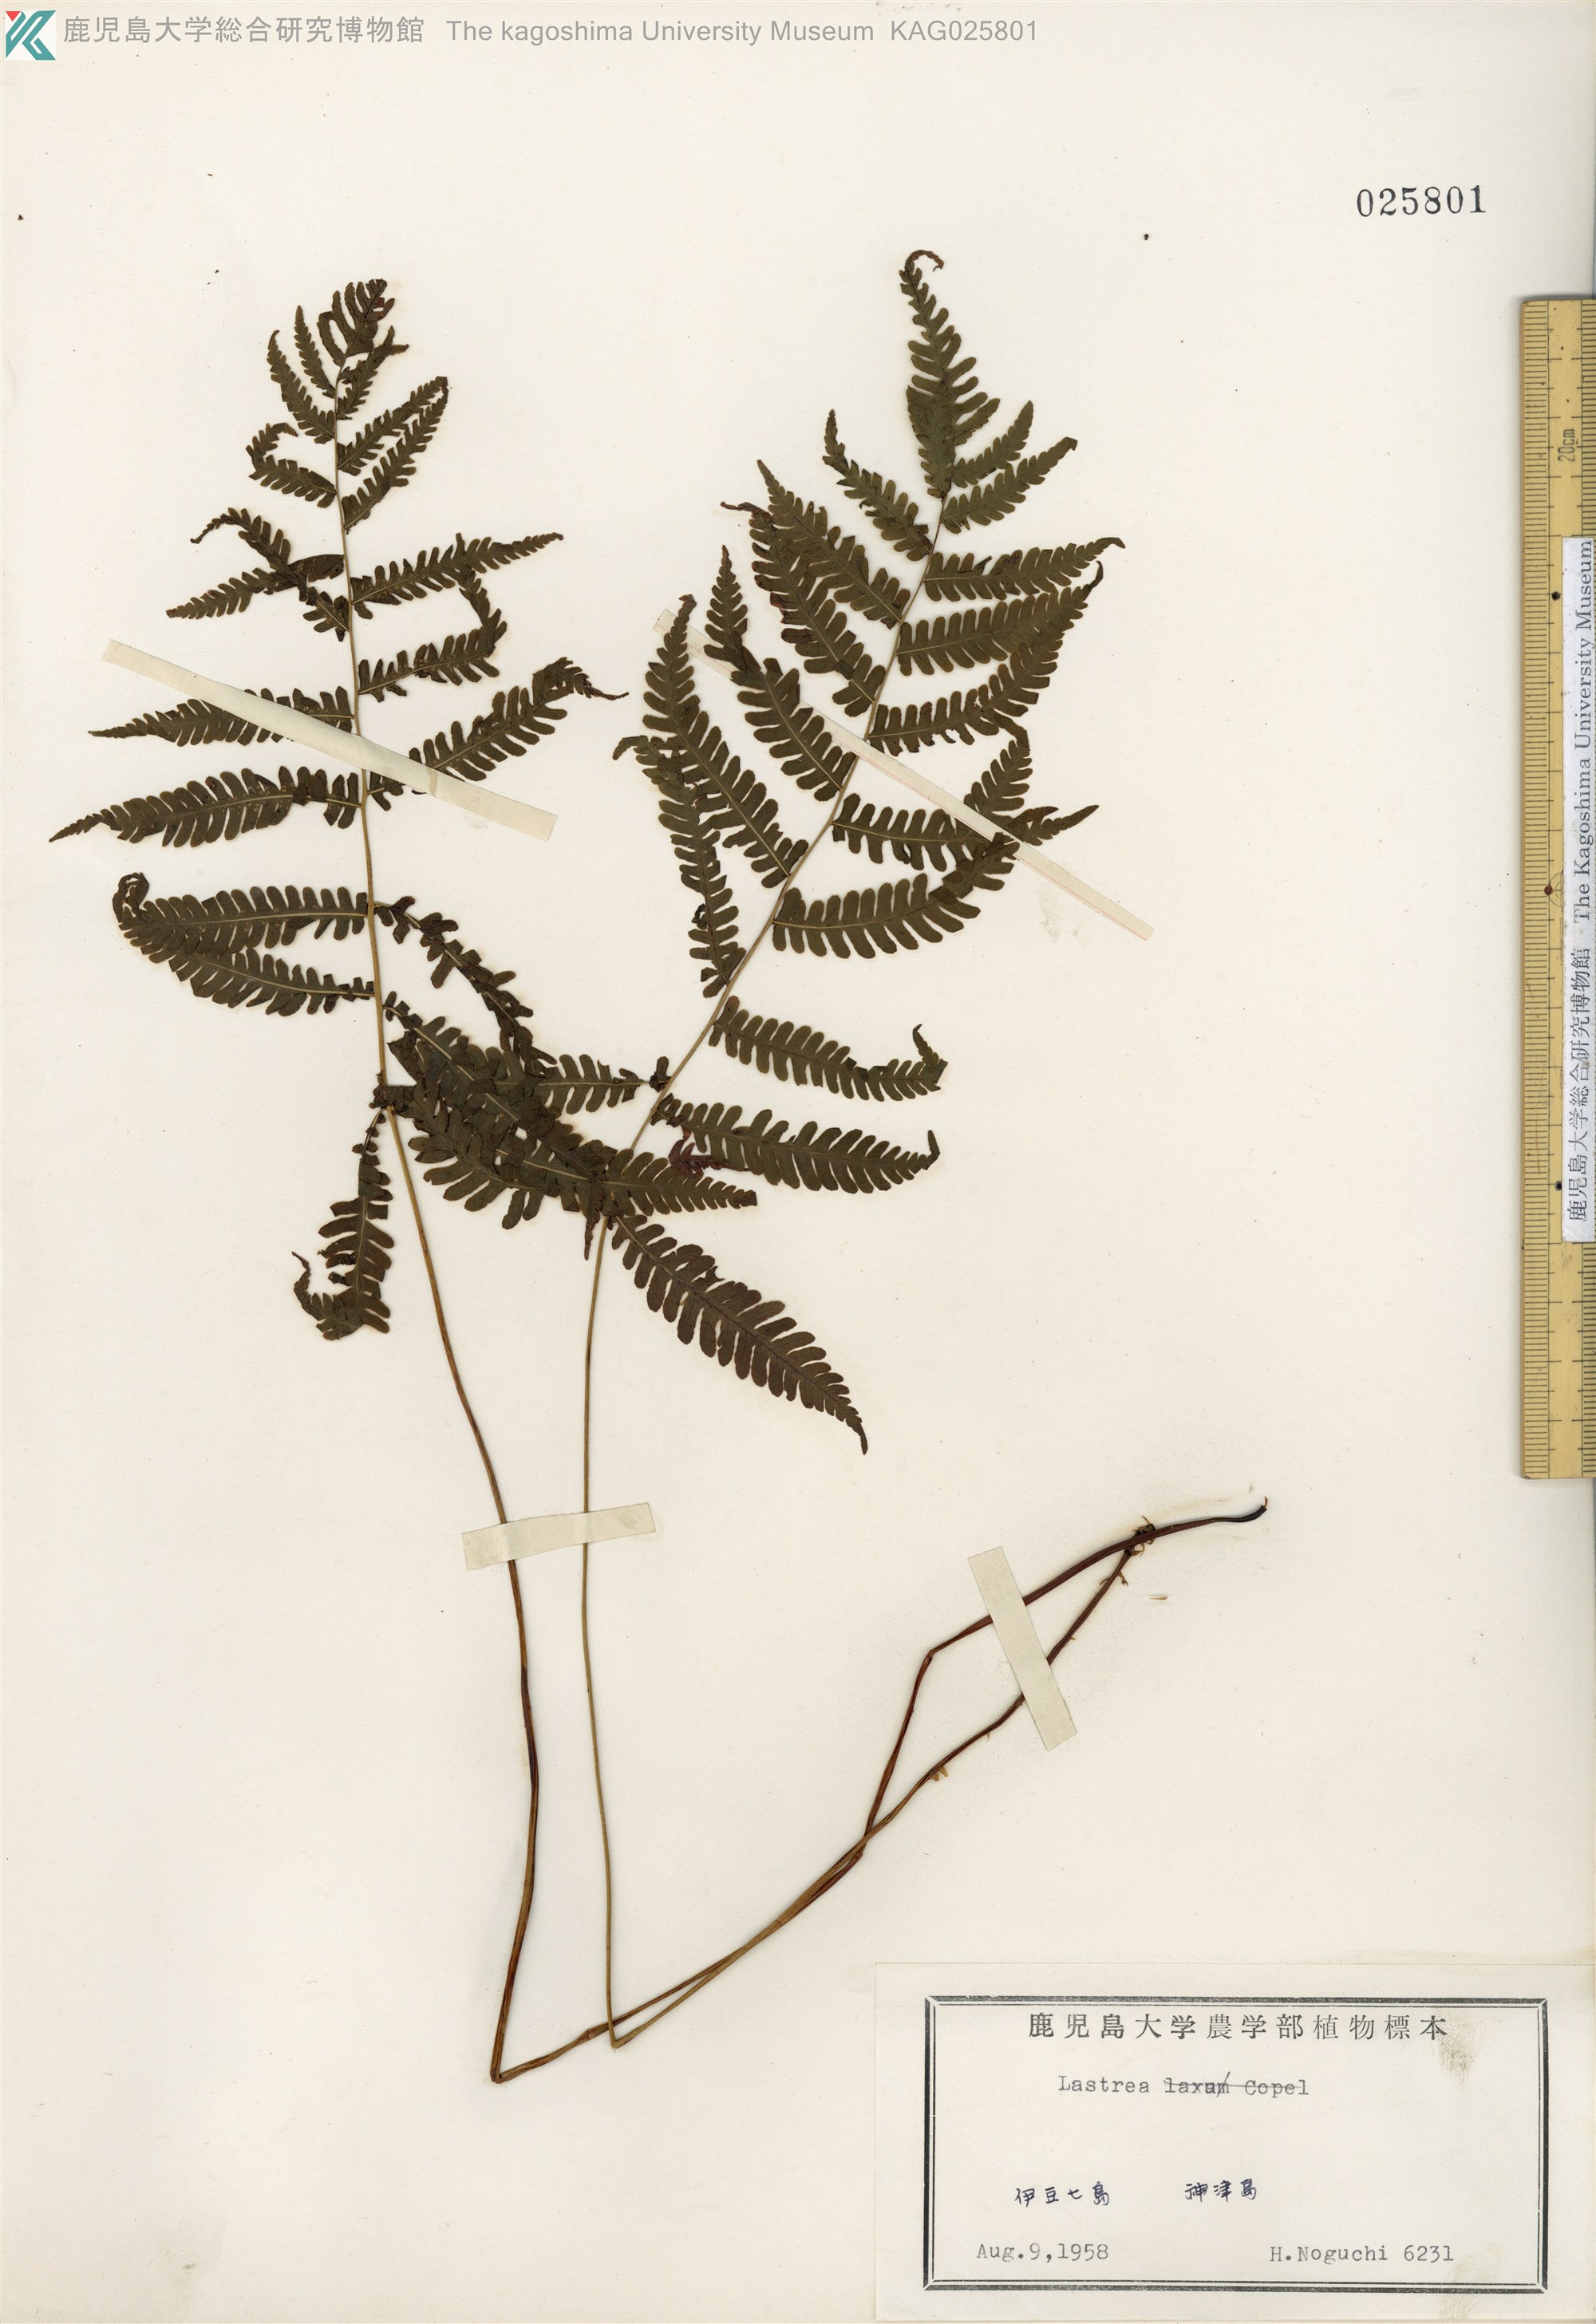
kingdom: Plantae
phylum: Tracheophyta
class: Polypodiopsida
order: Polypodiales
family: Thelypteridaceae
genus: Coryphopteris
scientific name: Coryphopteris japonica
